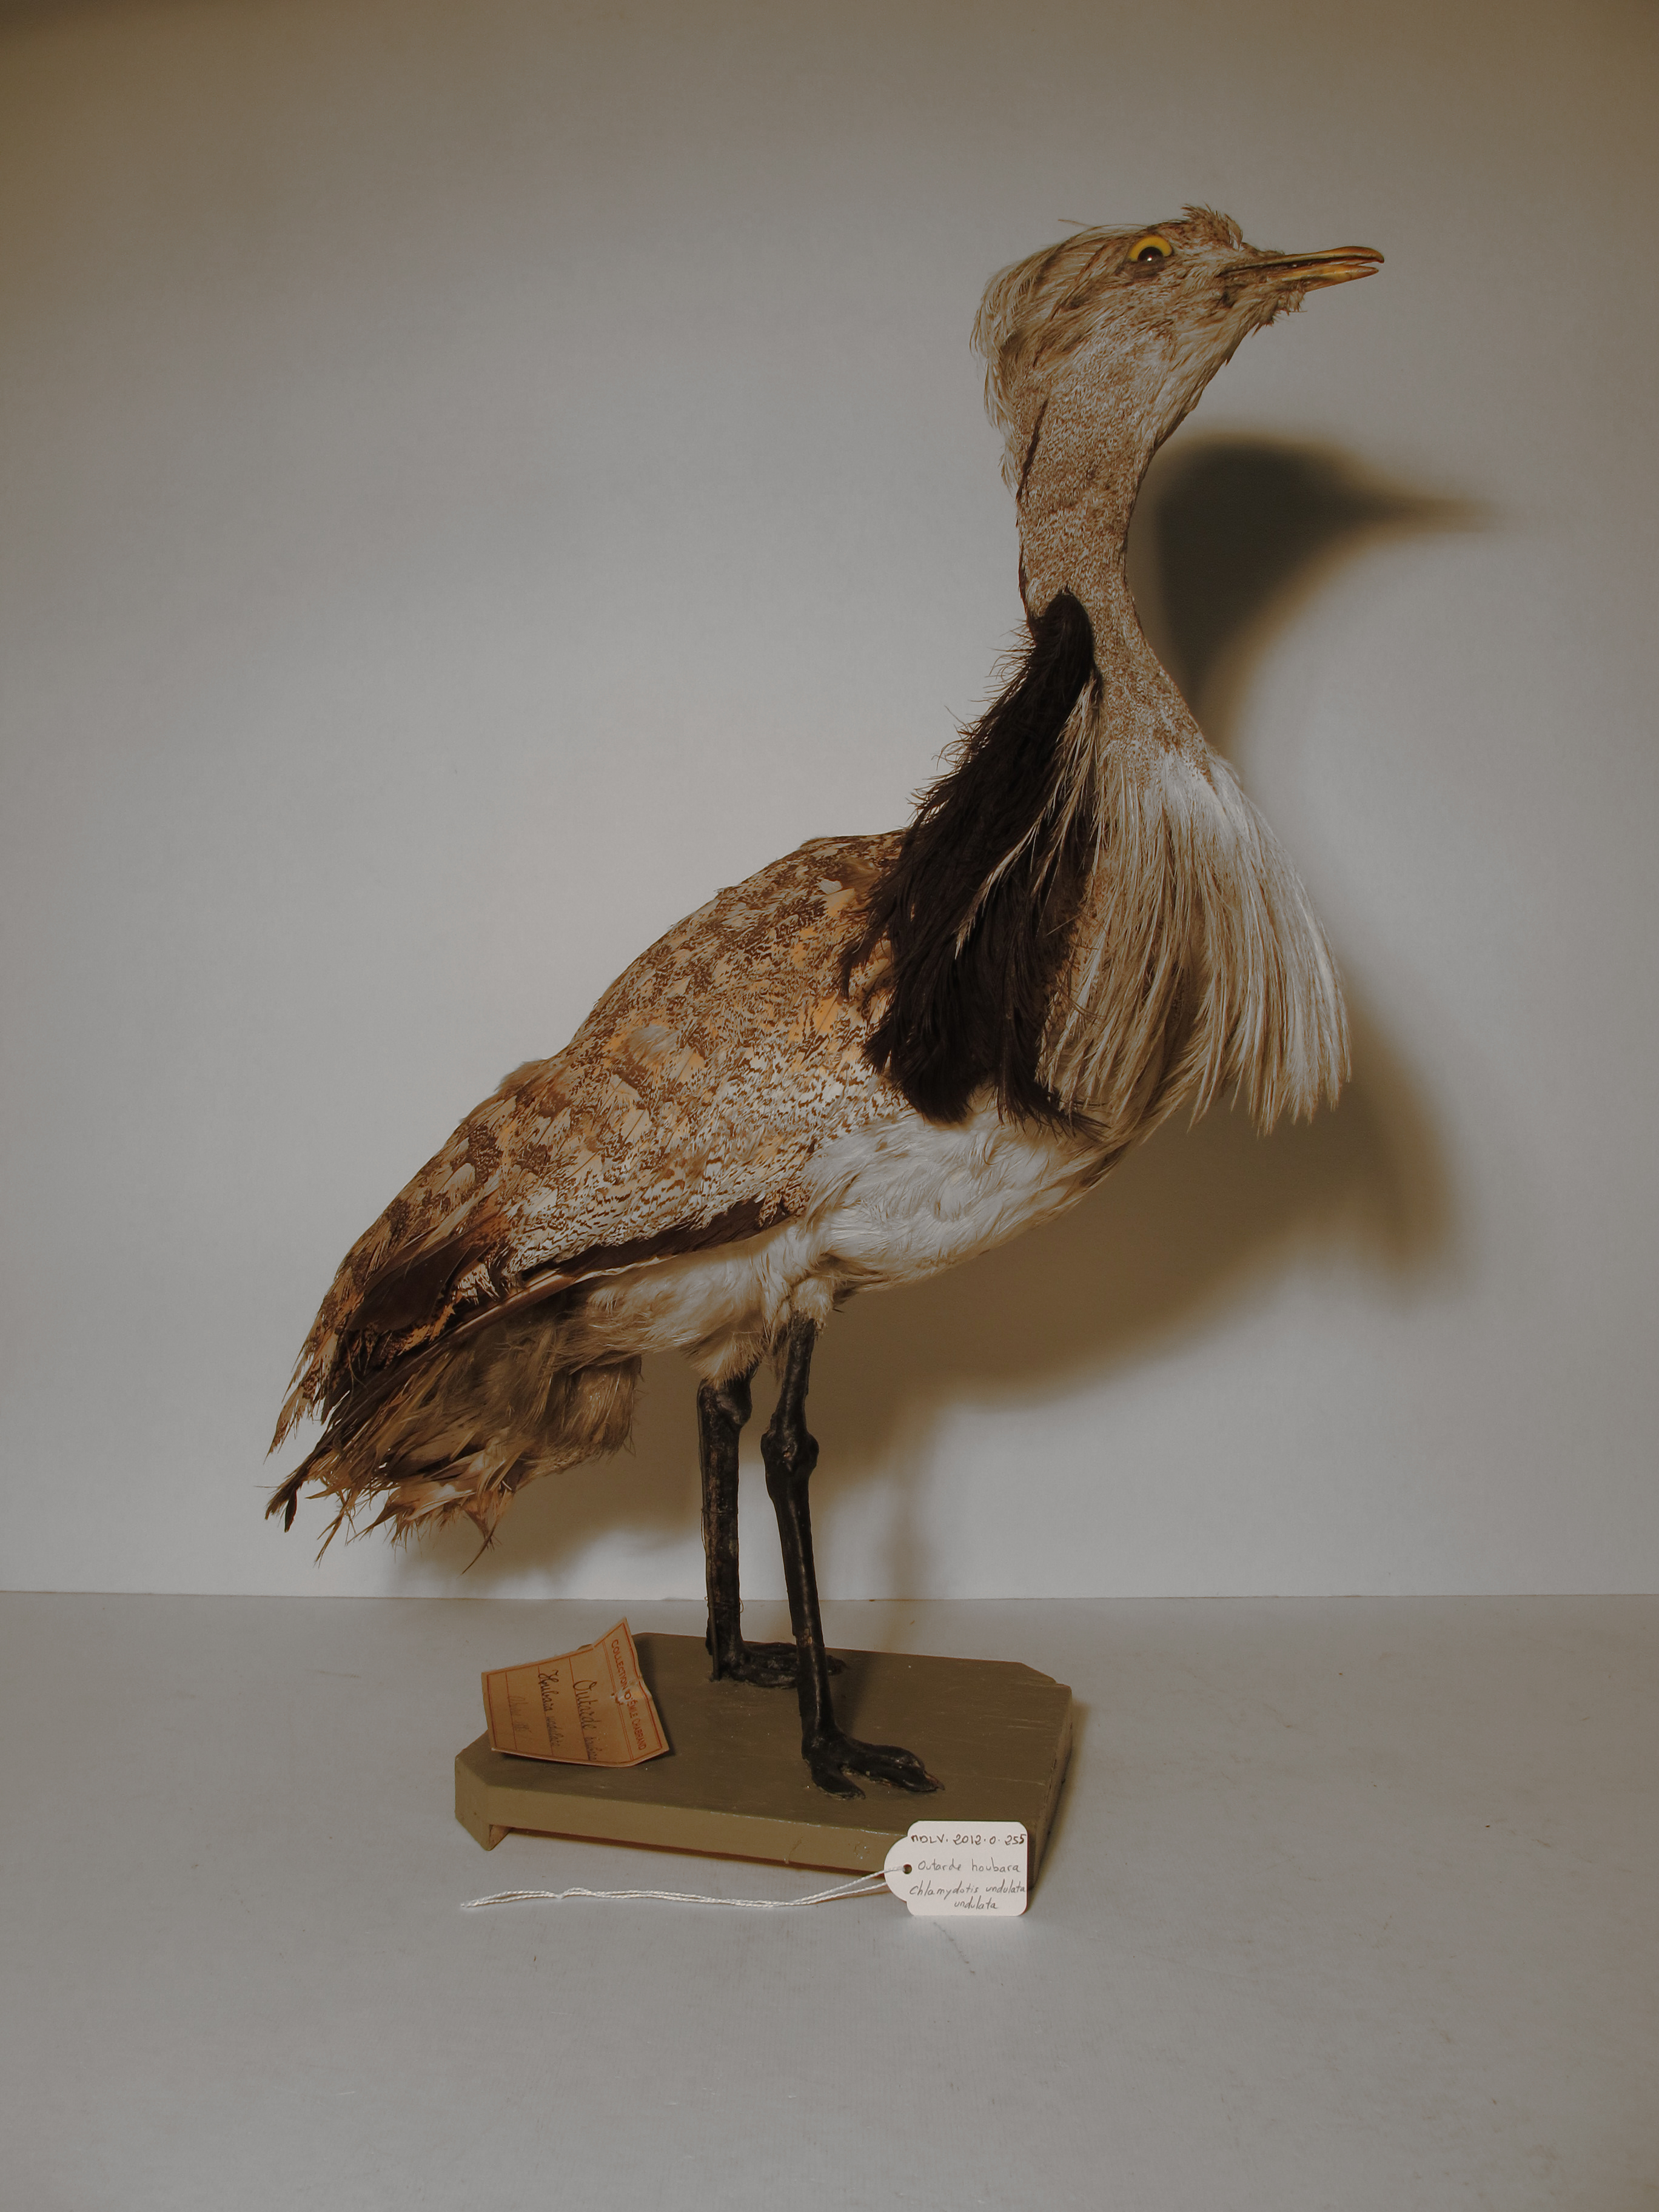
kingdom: Animalia
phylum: Chordata
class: Aves
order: Otidiformes
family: Otididae
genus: Chlamydotis
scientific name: Chlamydotis undulata
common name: Houbara Bustard
